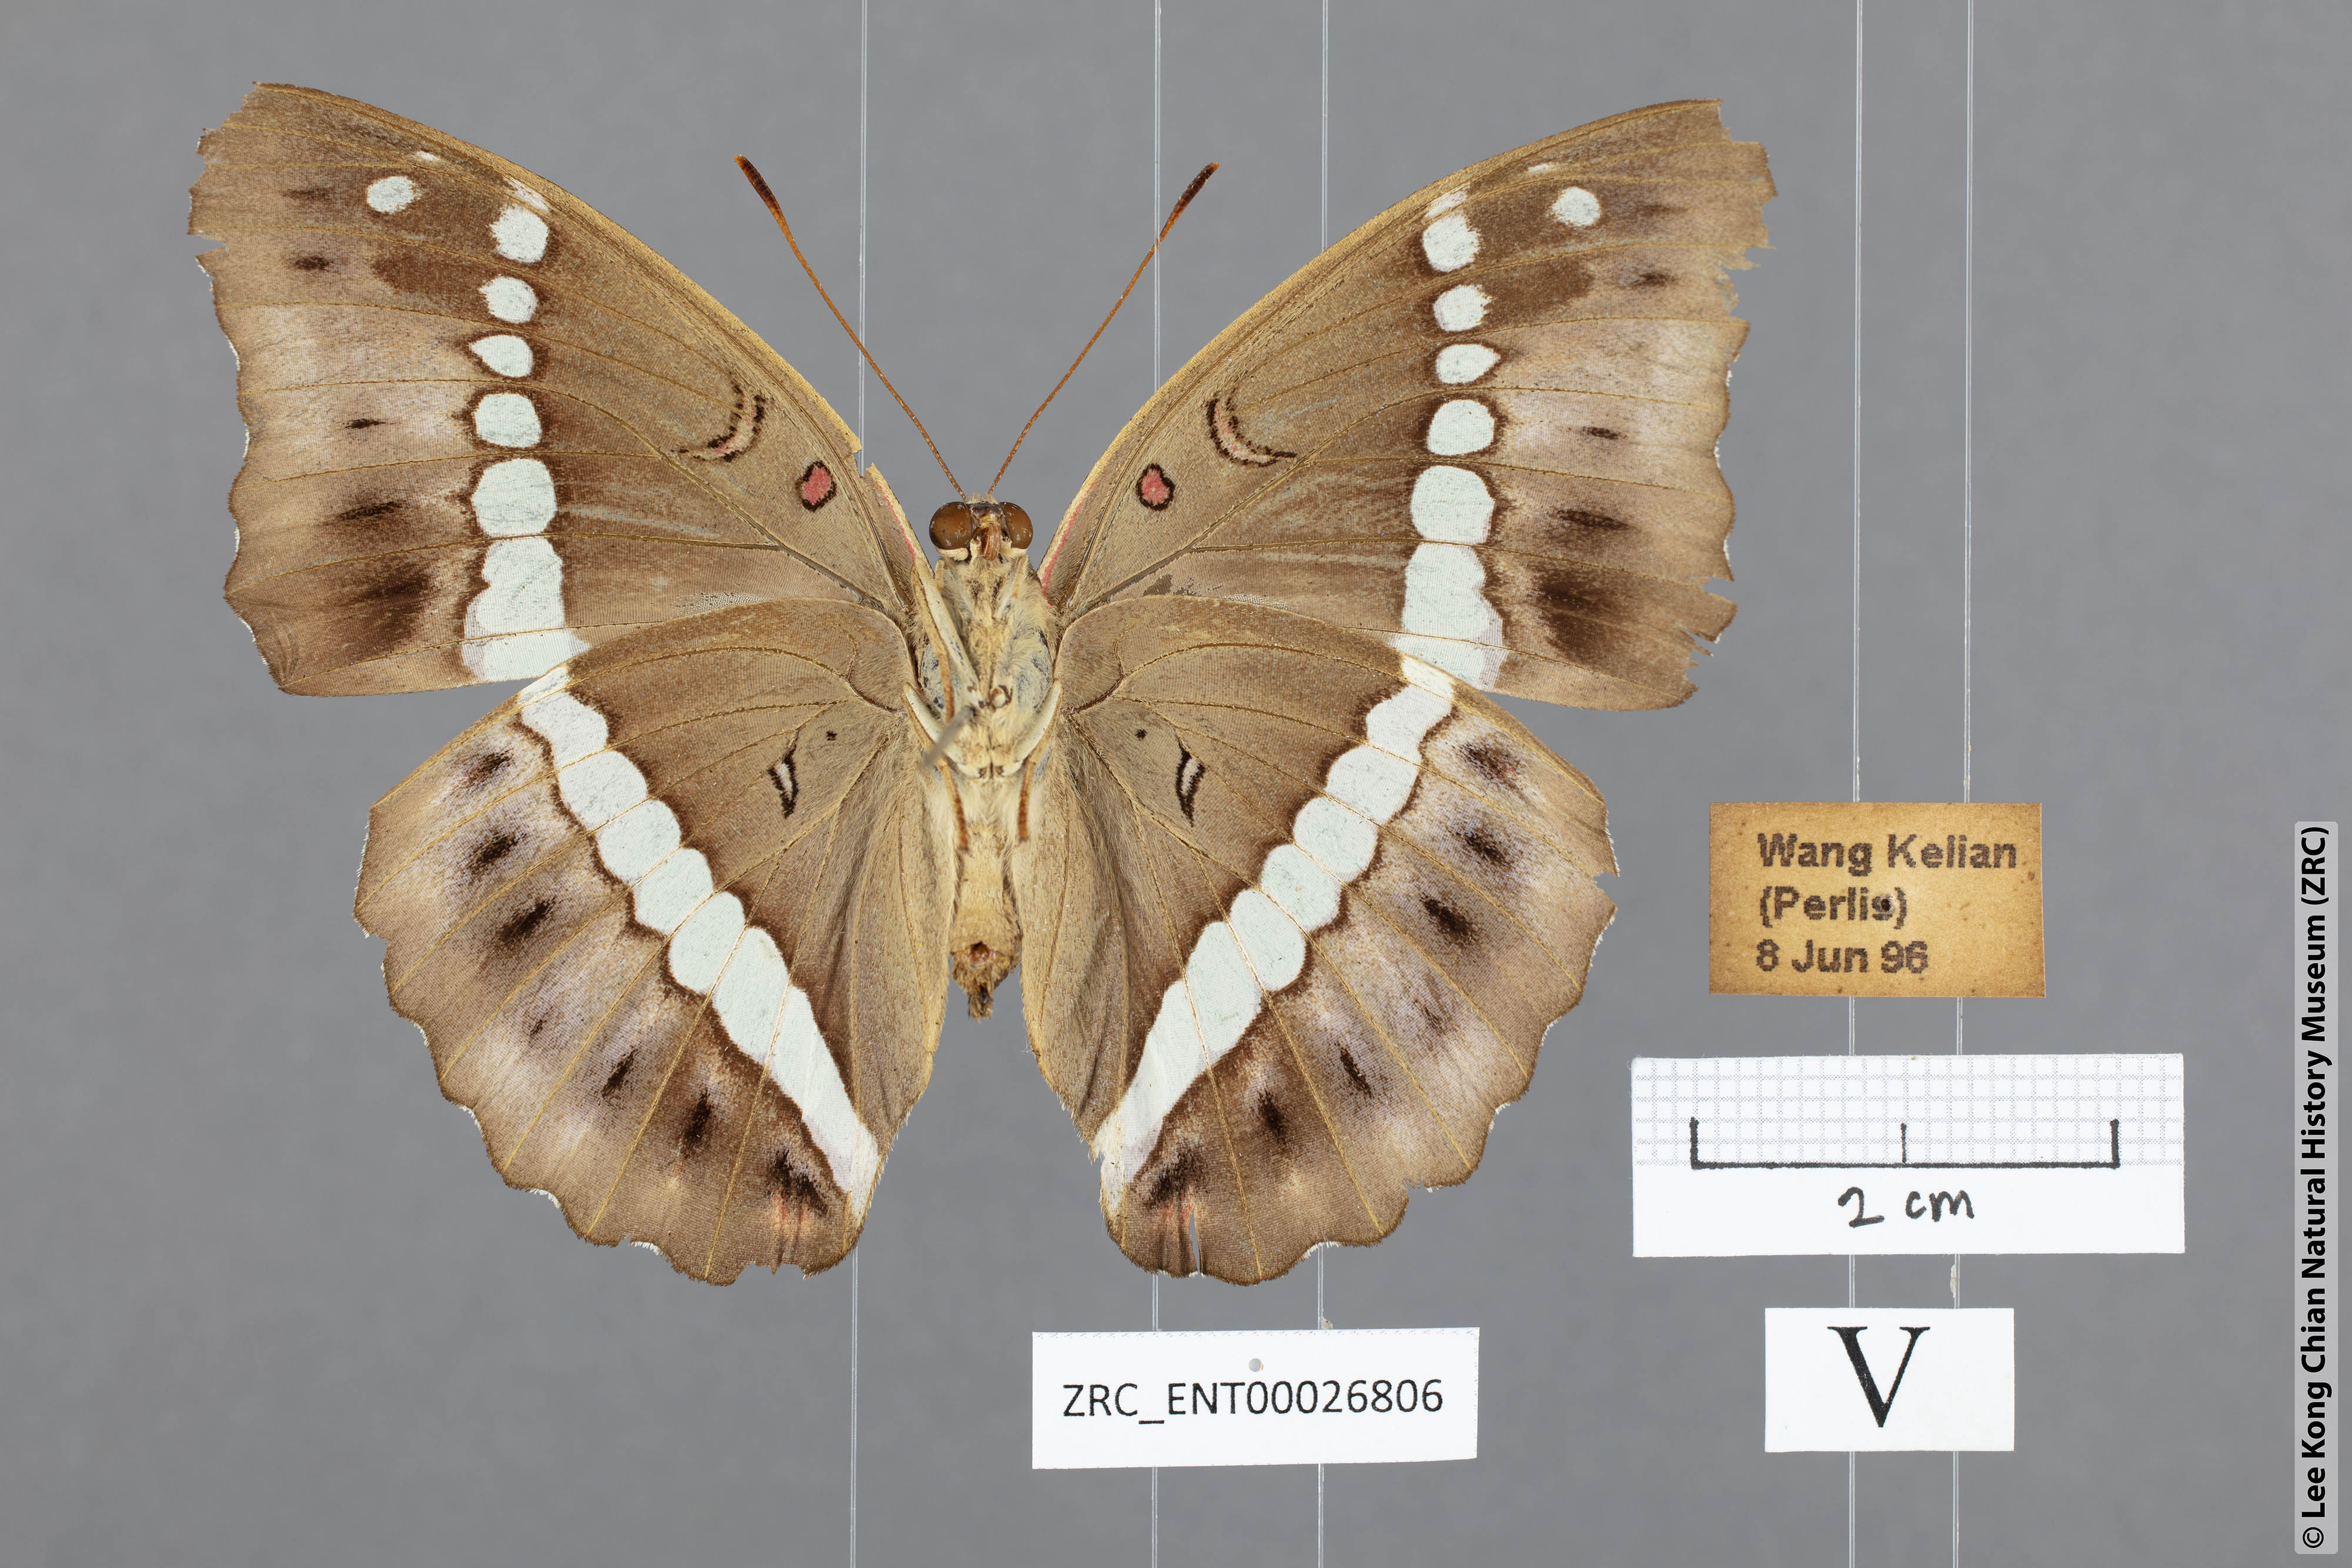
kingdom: Animalia
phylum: Arthropoda
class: Insecta
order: Lepidoptera
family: Nymphalidae
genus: Euthalia
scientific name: Euthalia Bassarona recta
